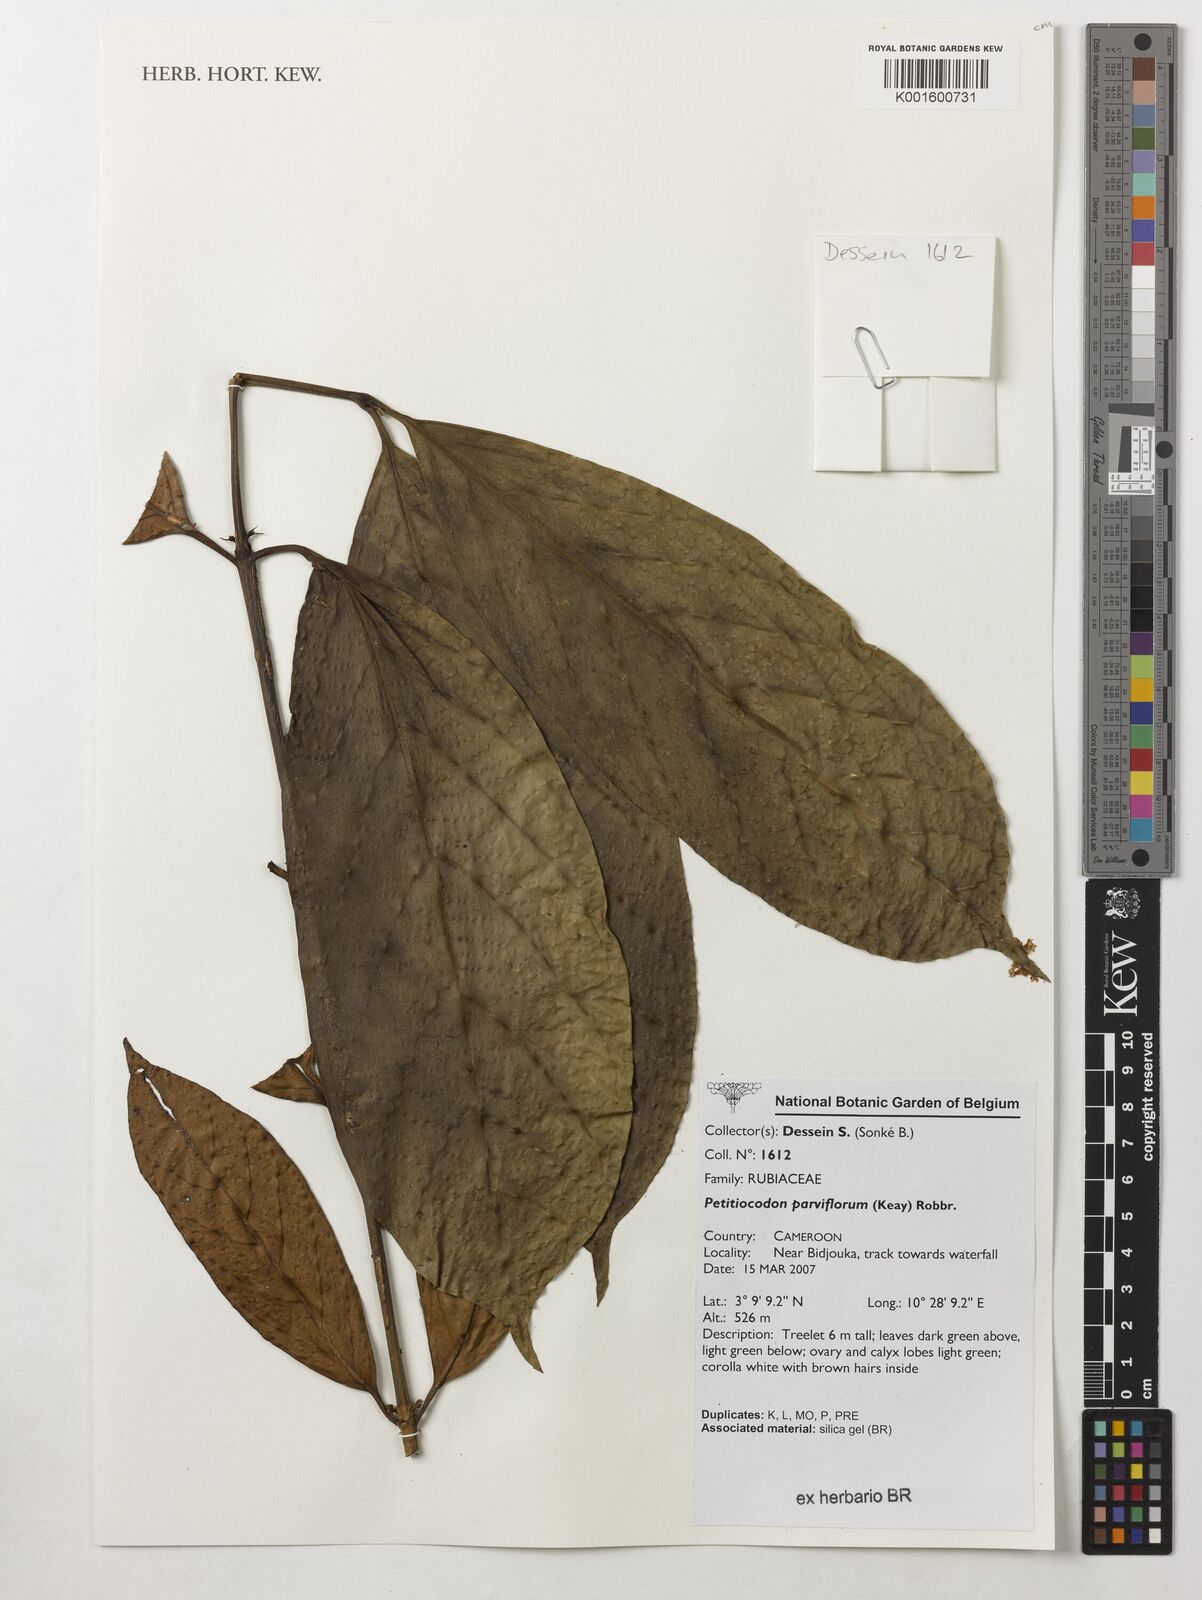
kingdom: Plantae
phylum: Tracheophyta
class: Magnoliopsida
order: Gentianales
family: Rubiaceae
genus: Petitiocodon
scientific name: Petitiocodon parviflorum
